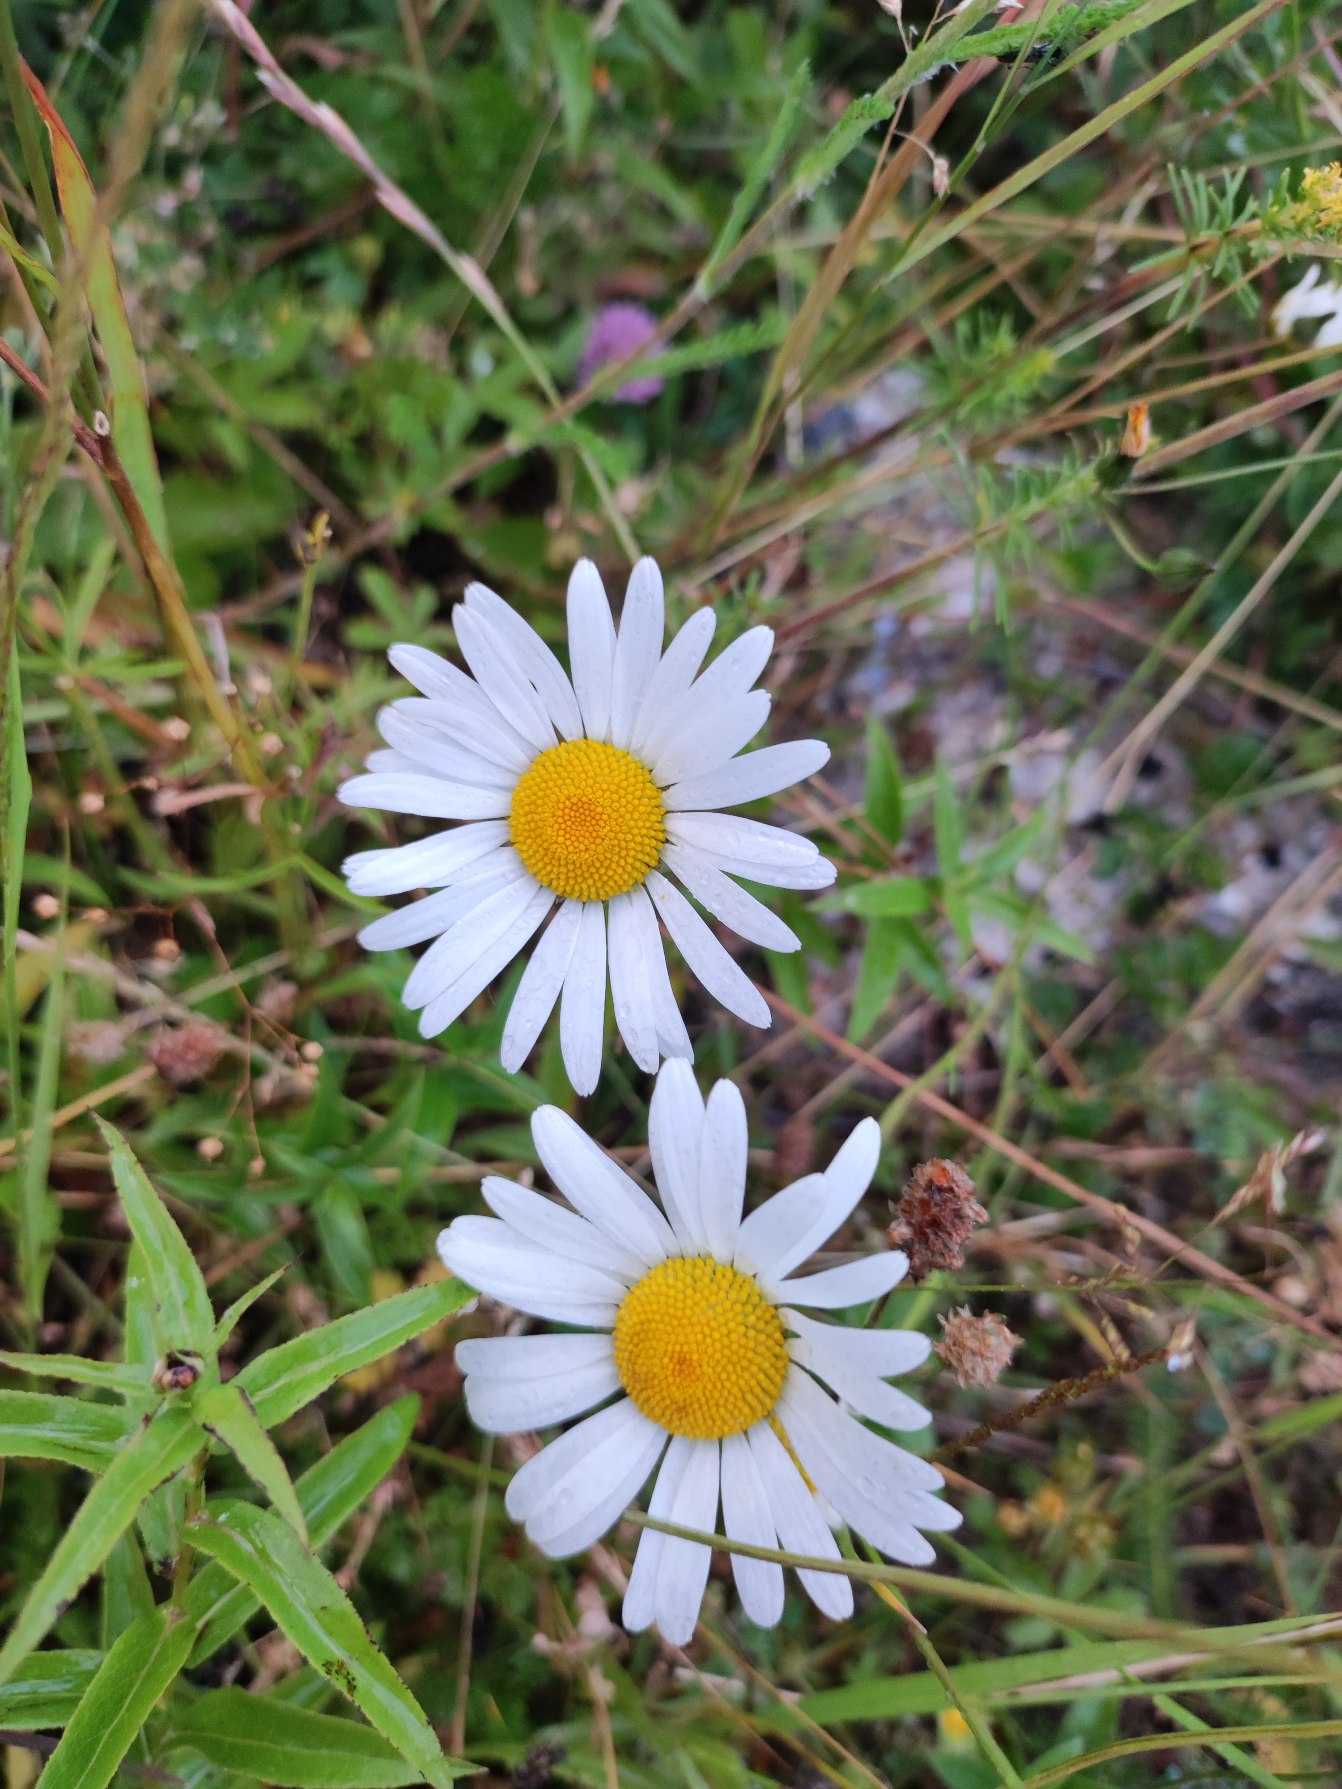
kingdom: Plantae
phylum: Tracheophyta
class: Magnoliopsida
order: Asterales
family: Asteraceae
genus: Leucanthemum
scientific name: Leucanthemum vulgare
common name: Hvid okseøje
